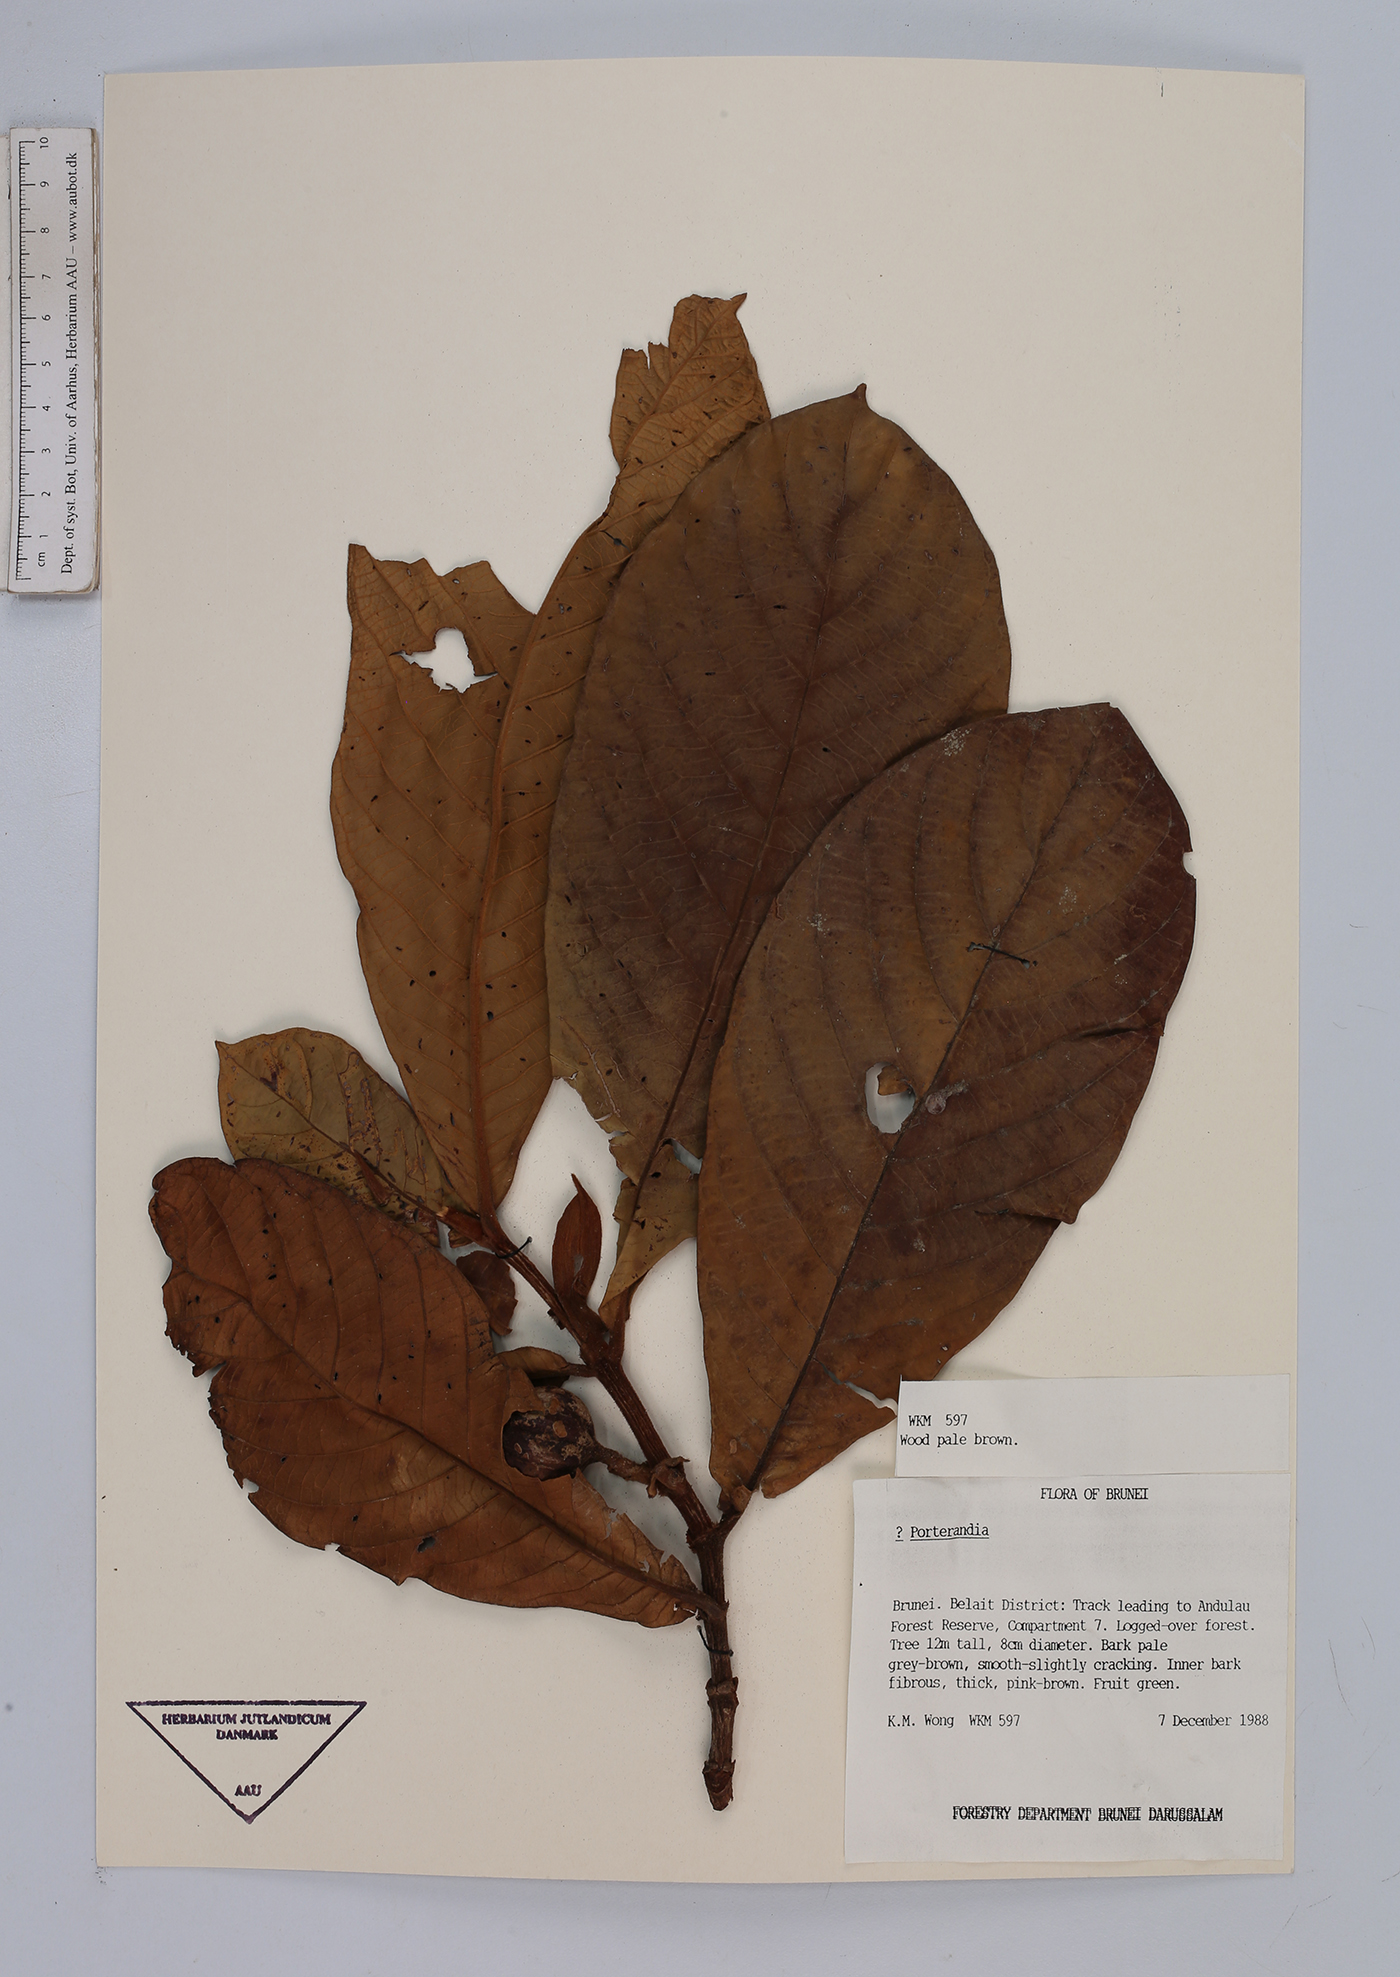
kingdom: Plantae
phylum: Tracheophyta
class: Magnoliopsida
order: Gentianales
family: Rubiaceae
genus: Urophyllum
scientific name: Urophyllum
